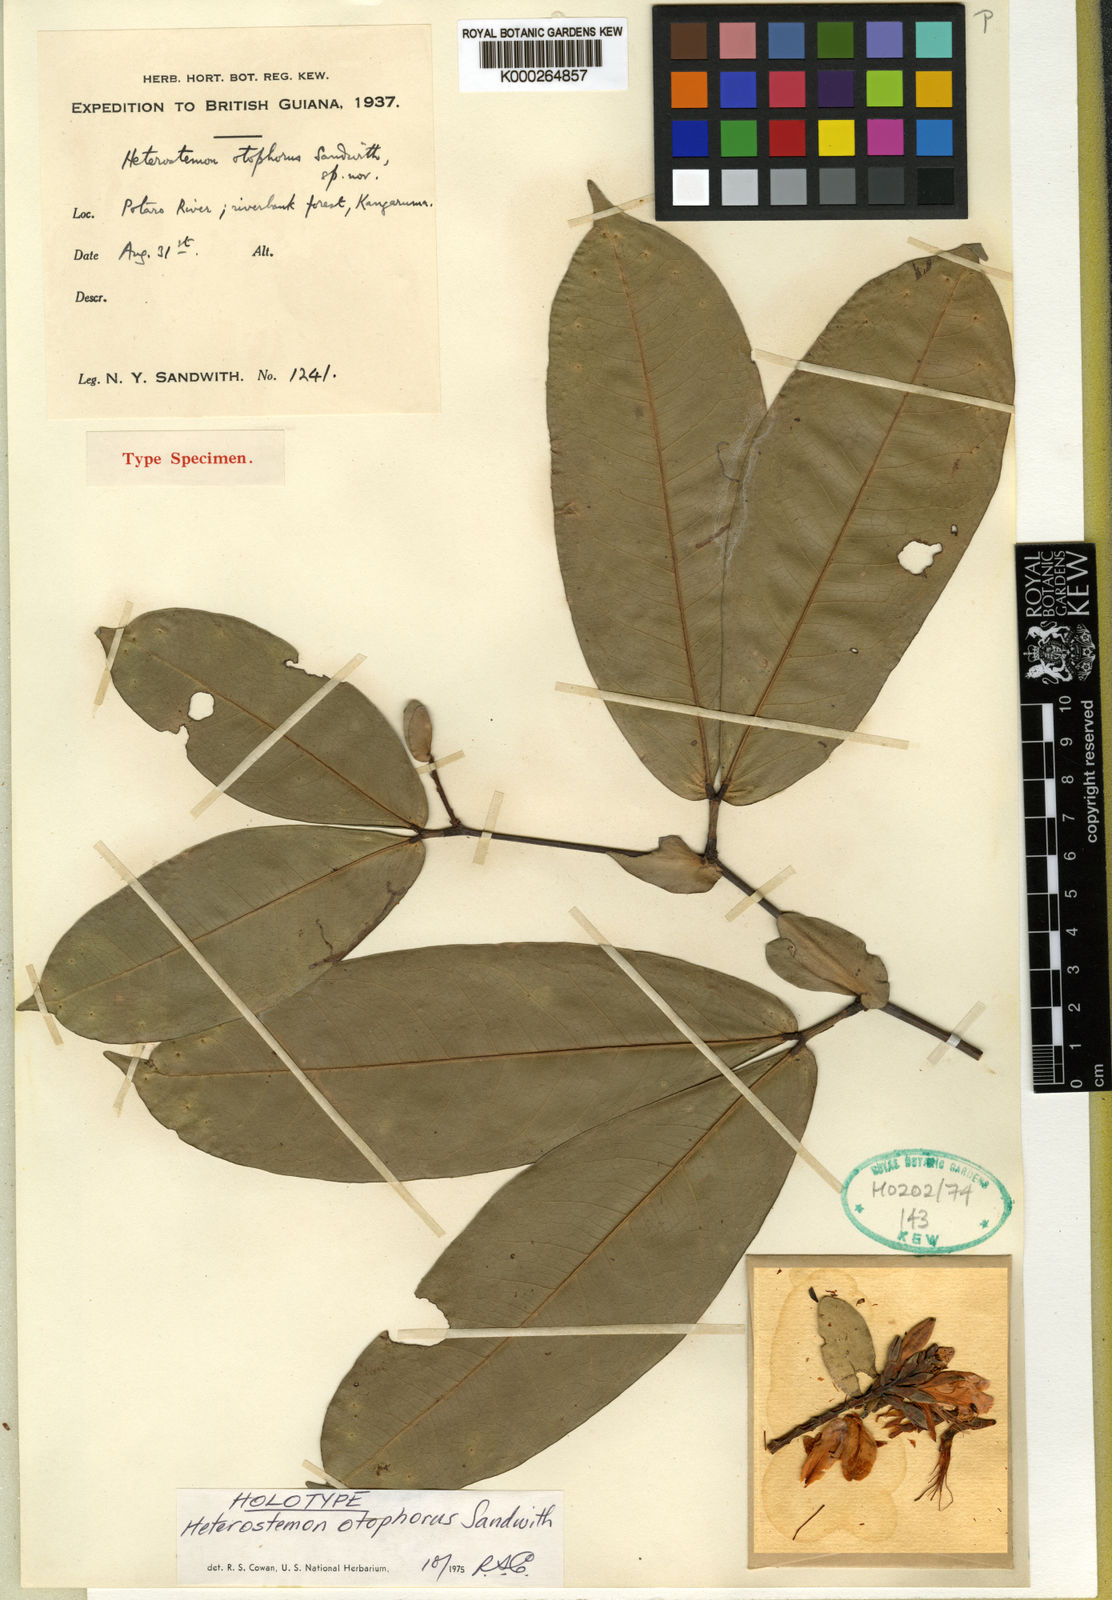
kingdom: Plantae
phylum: Tracheophyta
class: Magnoliopsida
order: Fabales
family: Fabaceae
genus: Heterostemon
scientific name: Heterostemon otophorus
